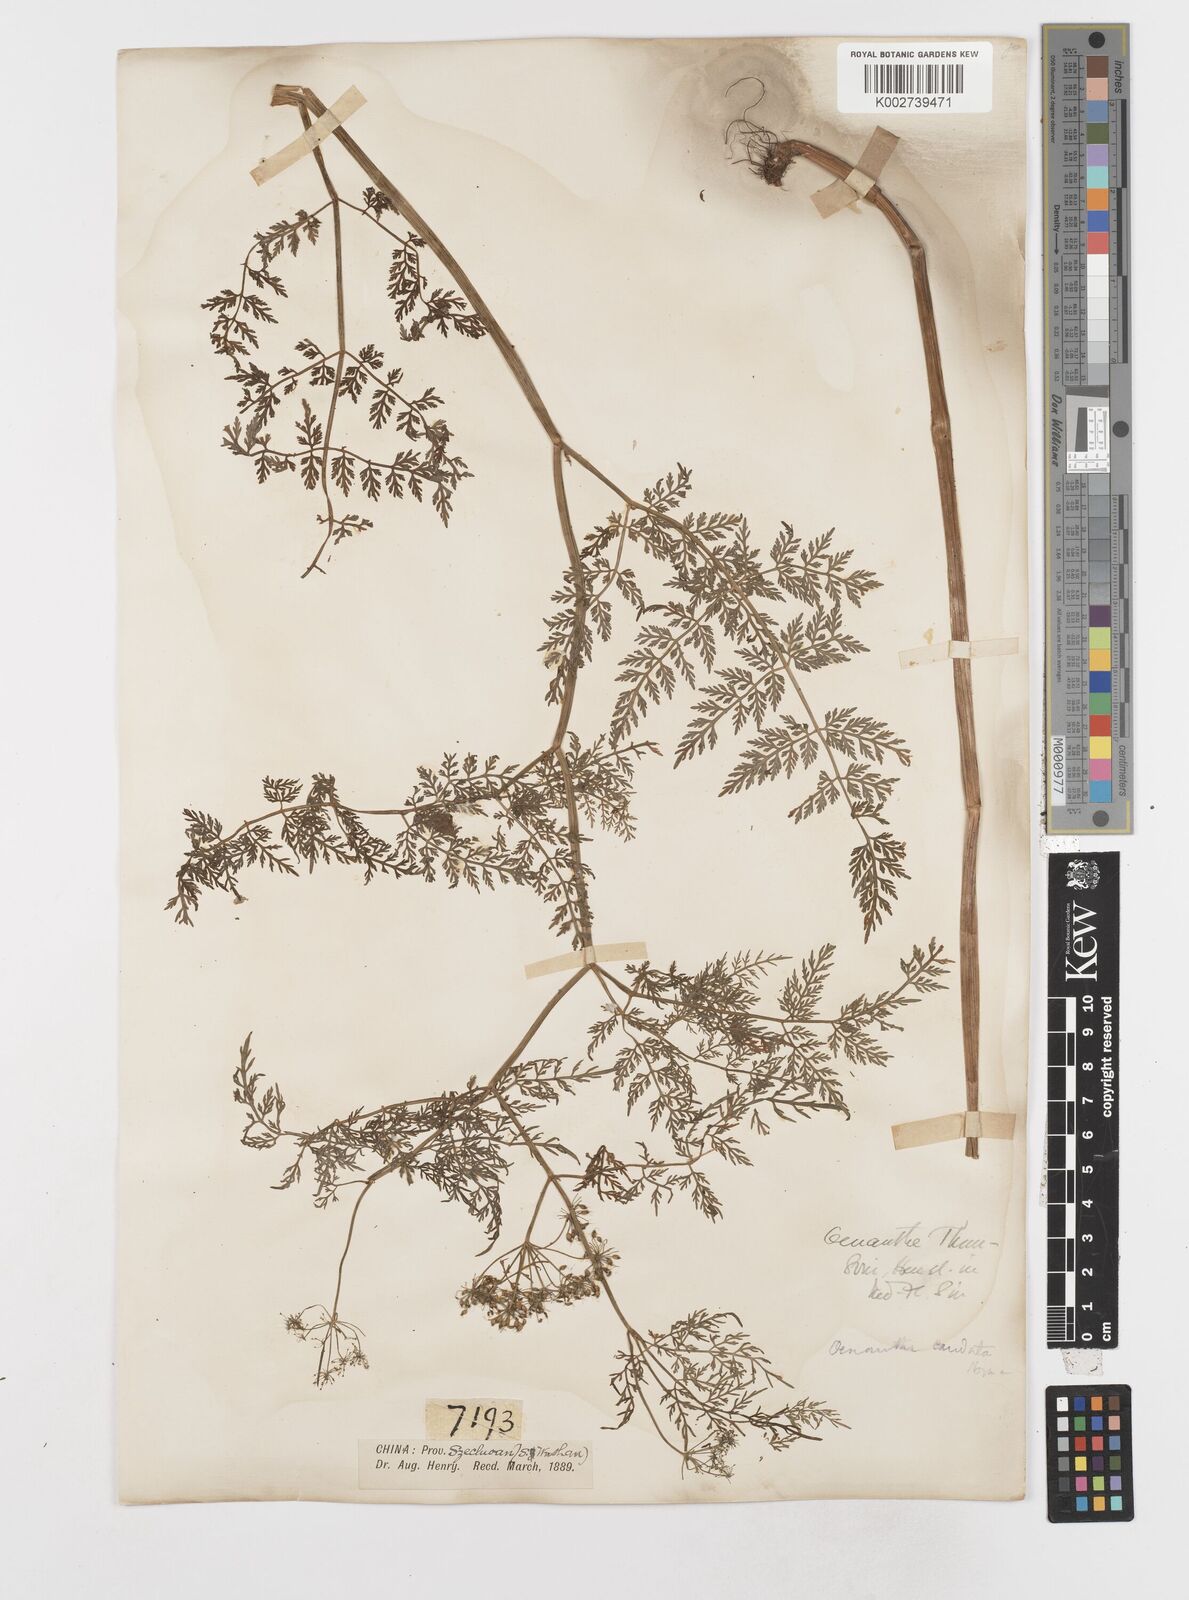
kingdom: Plantae
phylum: Tracheophyta
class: Magnoliopsida
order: Apiales
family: Apiaceae
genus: Oenanthe
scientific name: Oenanthe thomsonii
